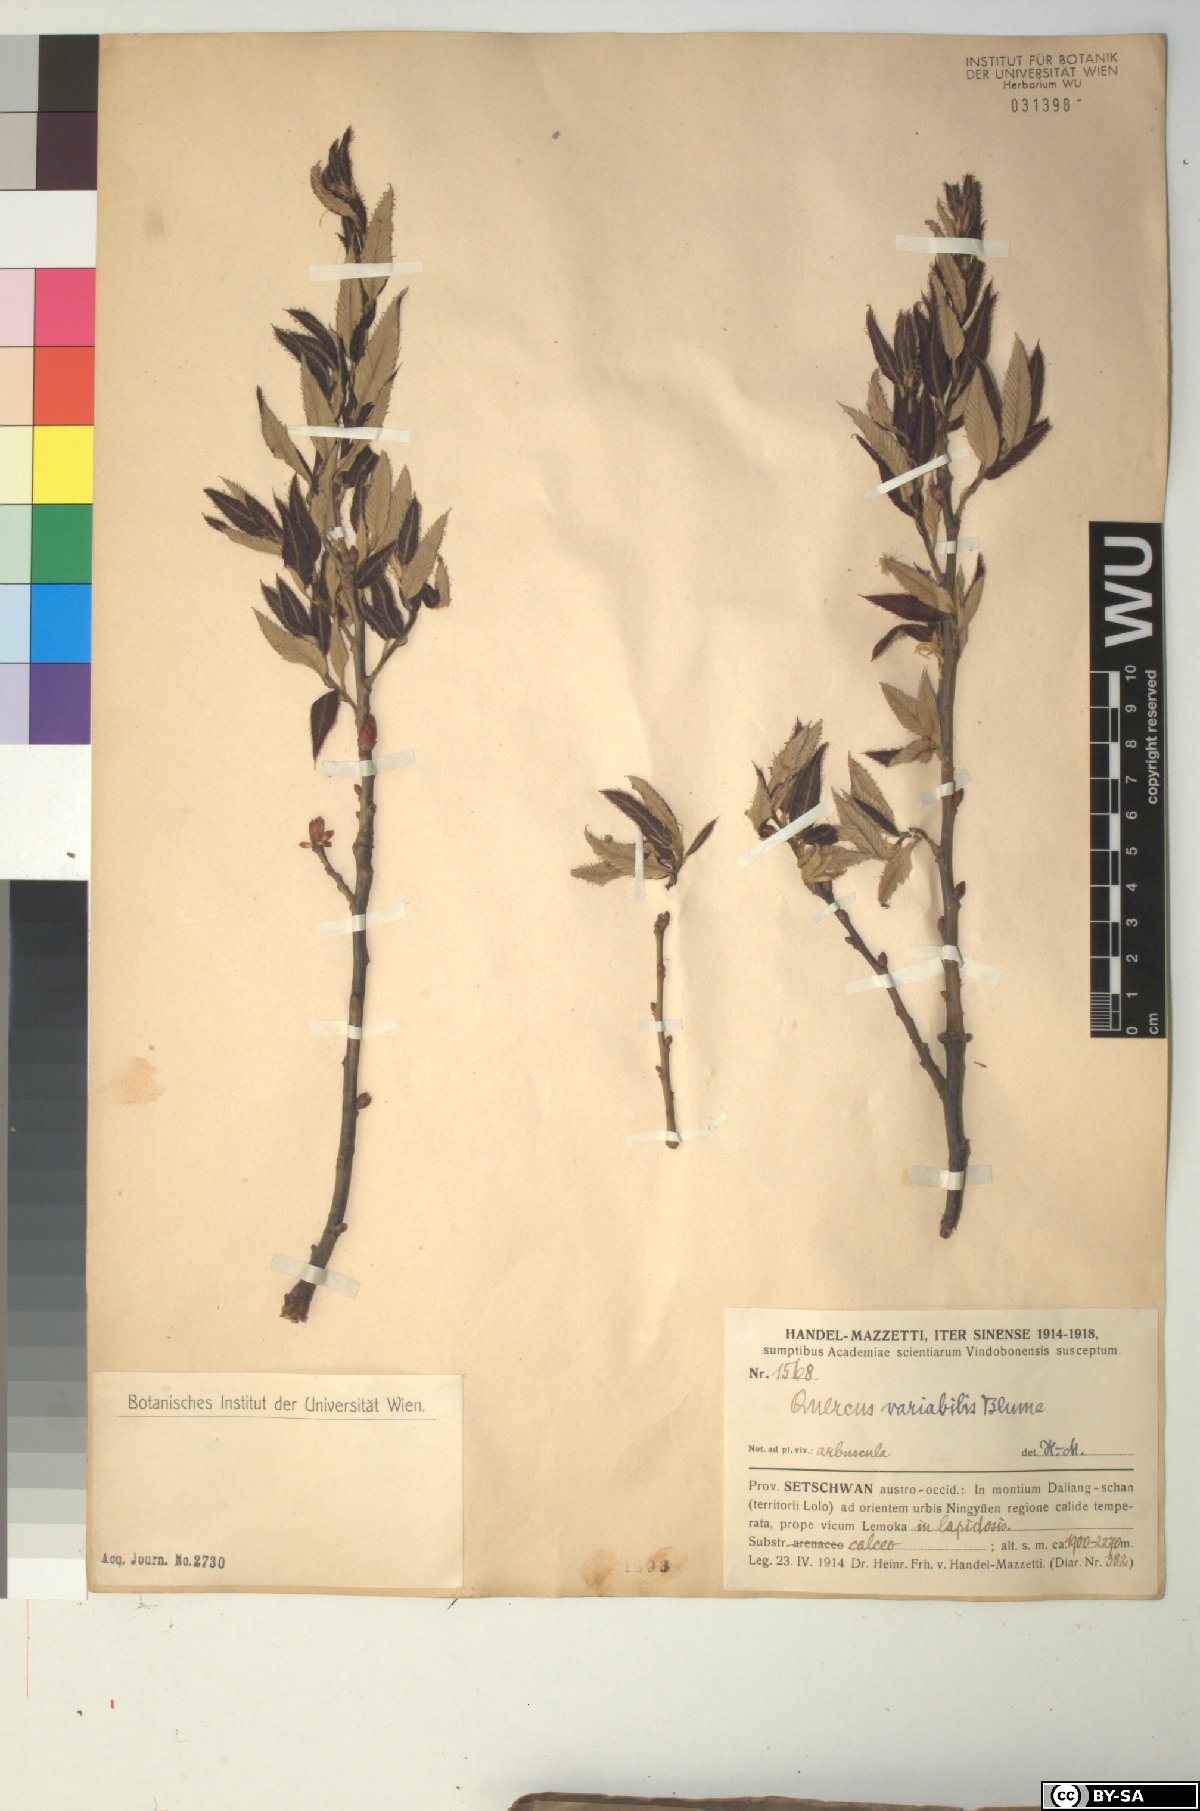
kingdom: Plantae
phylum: Tracheophyta
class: Magnoliopsida
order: Fagales
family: Fagaceae
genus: Quercus
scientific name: Quercus variabilis
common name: Chinese cork oak
